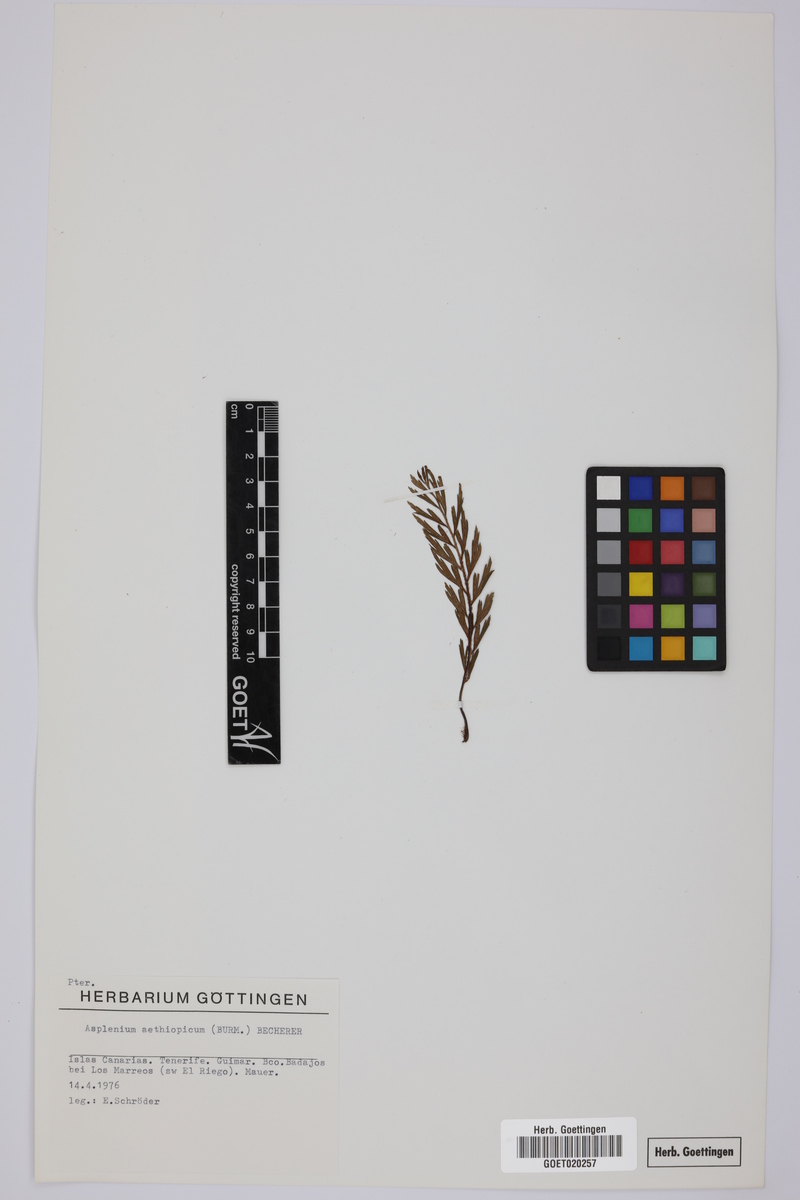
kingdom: Plantae
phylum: Tracheophyta
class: Polypodiopsida
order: Polypodiales
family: Aspleniaceae
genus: Asplenium
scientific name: Asplenium aethiopicum
